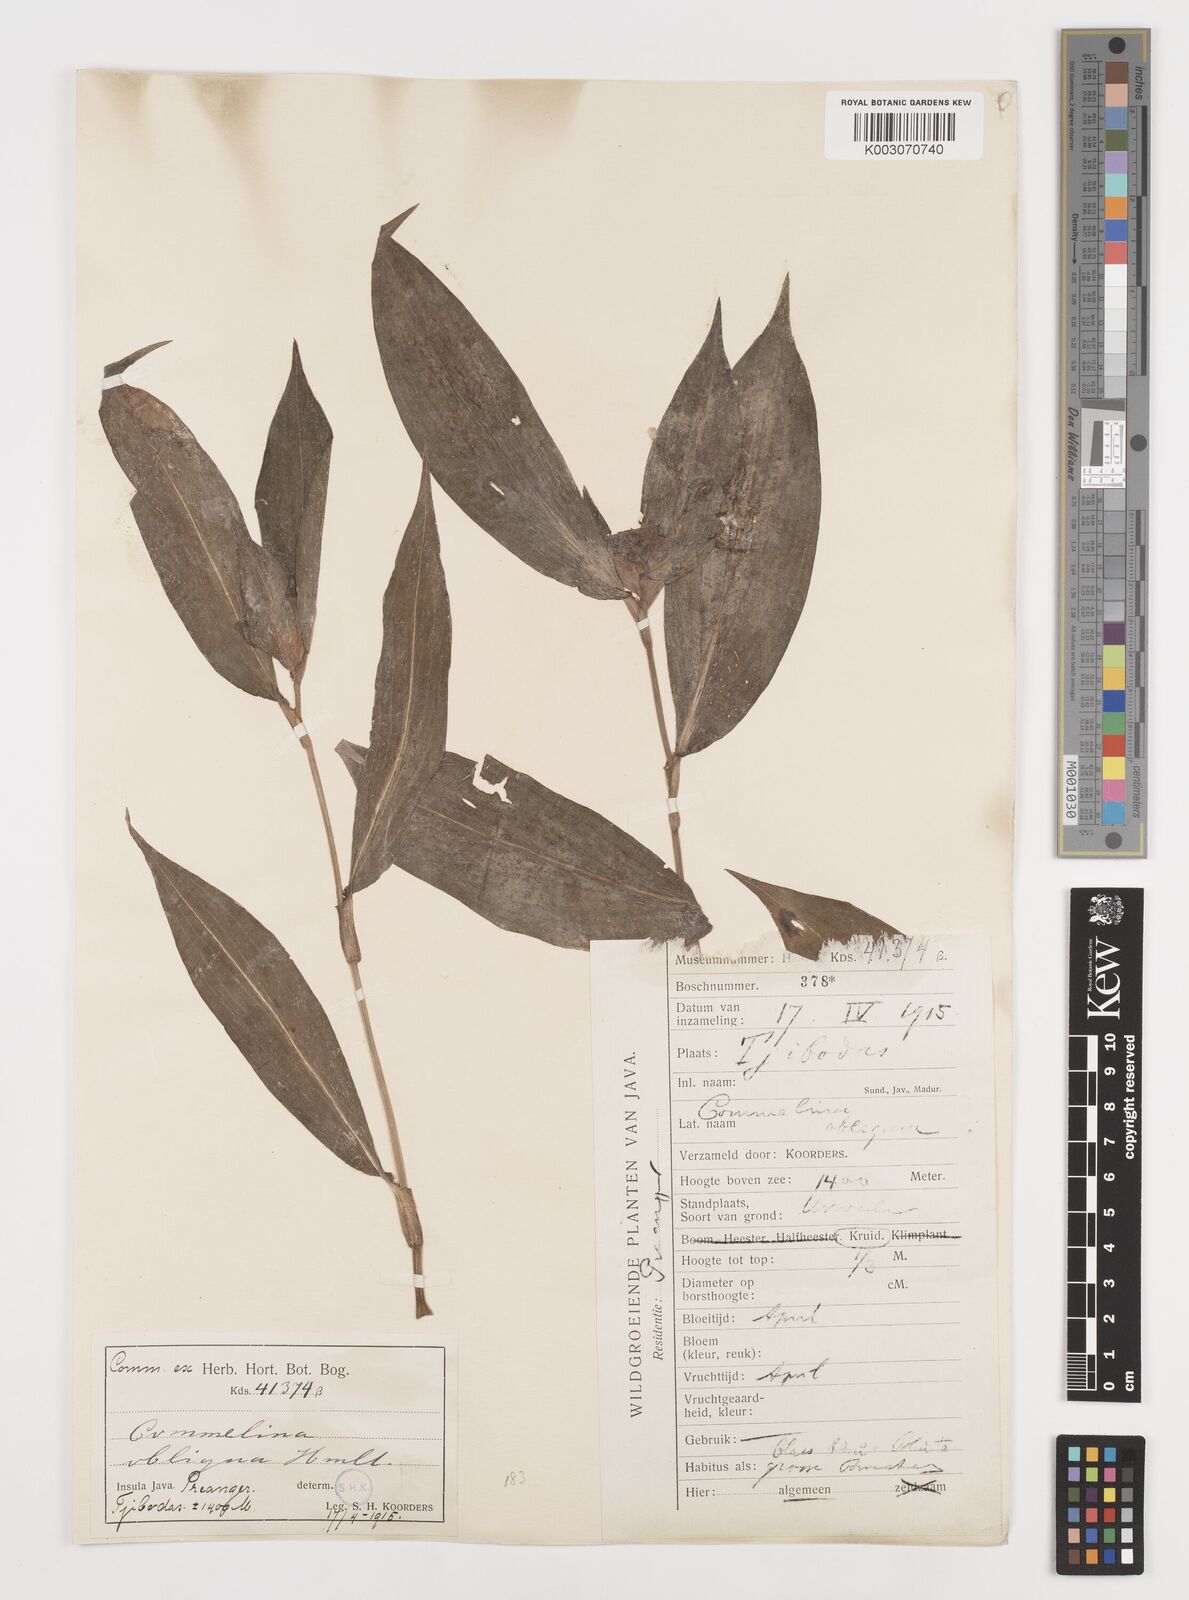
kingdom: Plantae
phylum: Tracheophyta
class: Liliopsida
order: Commelinales
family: Commelinaceae
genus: Commelina
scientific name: Commelina paludosa
